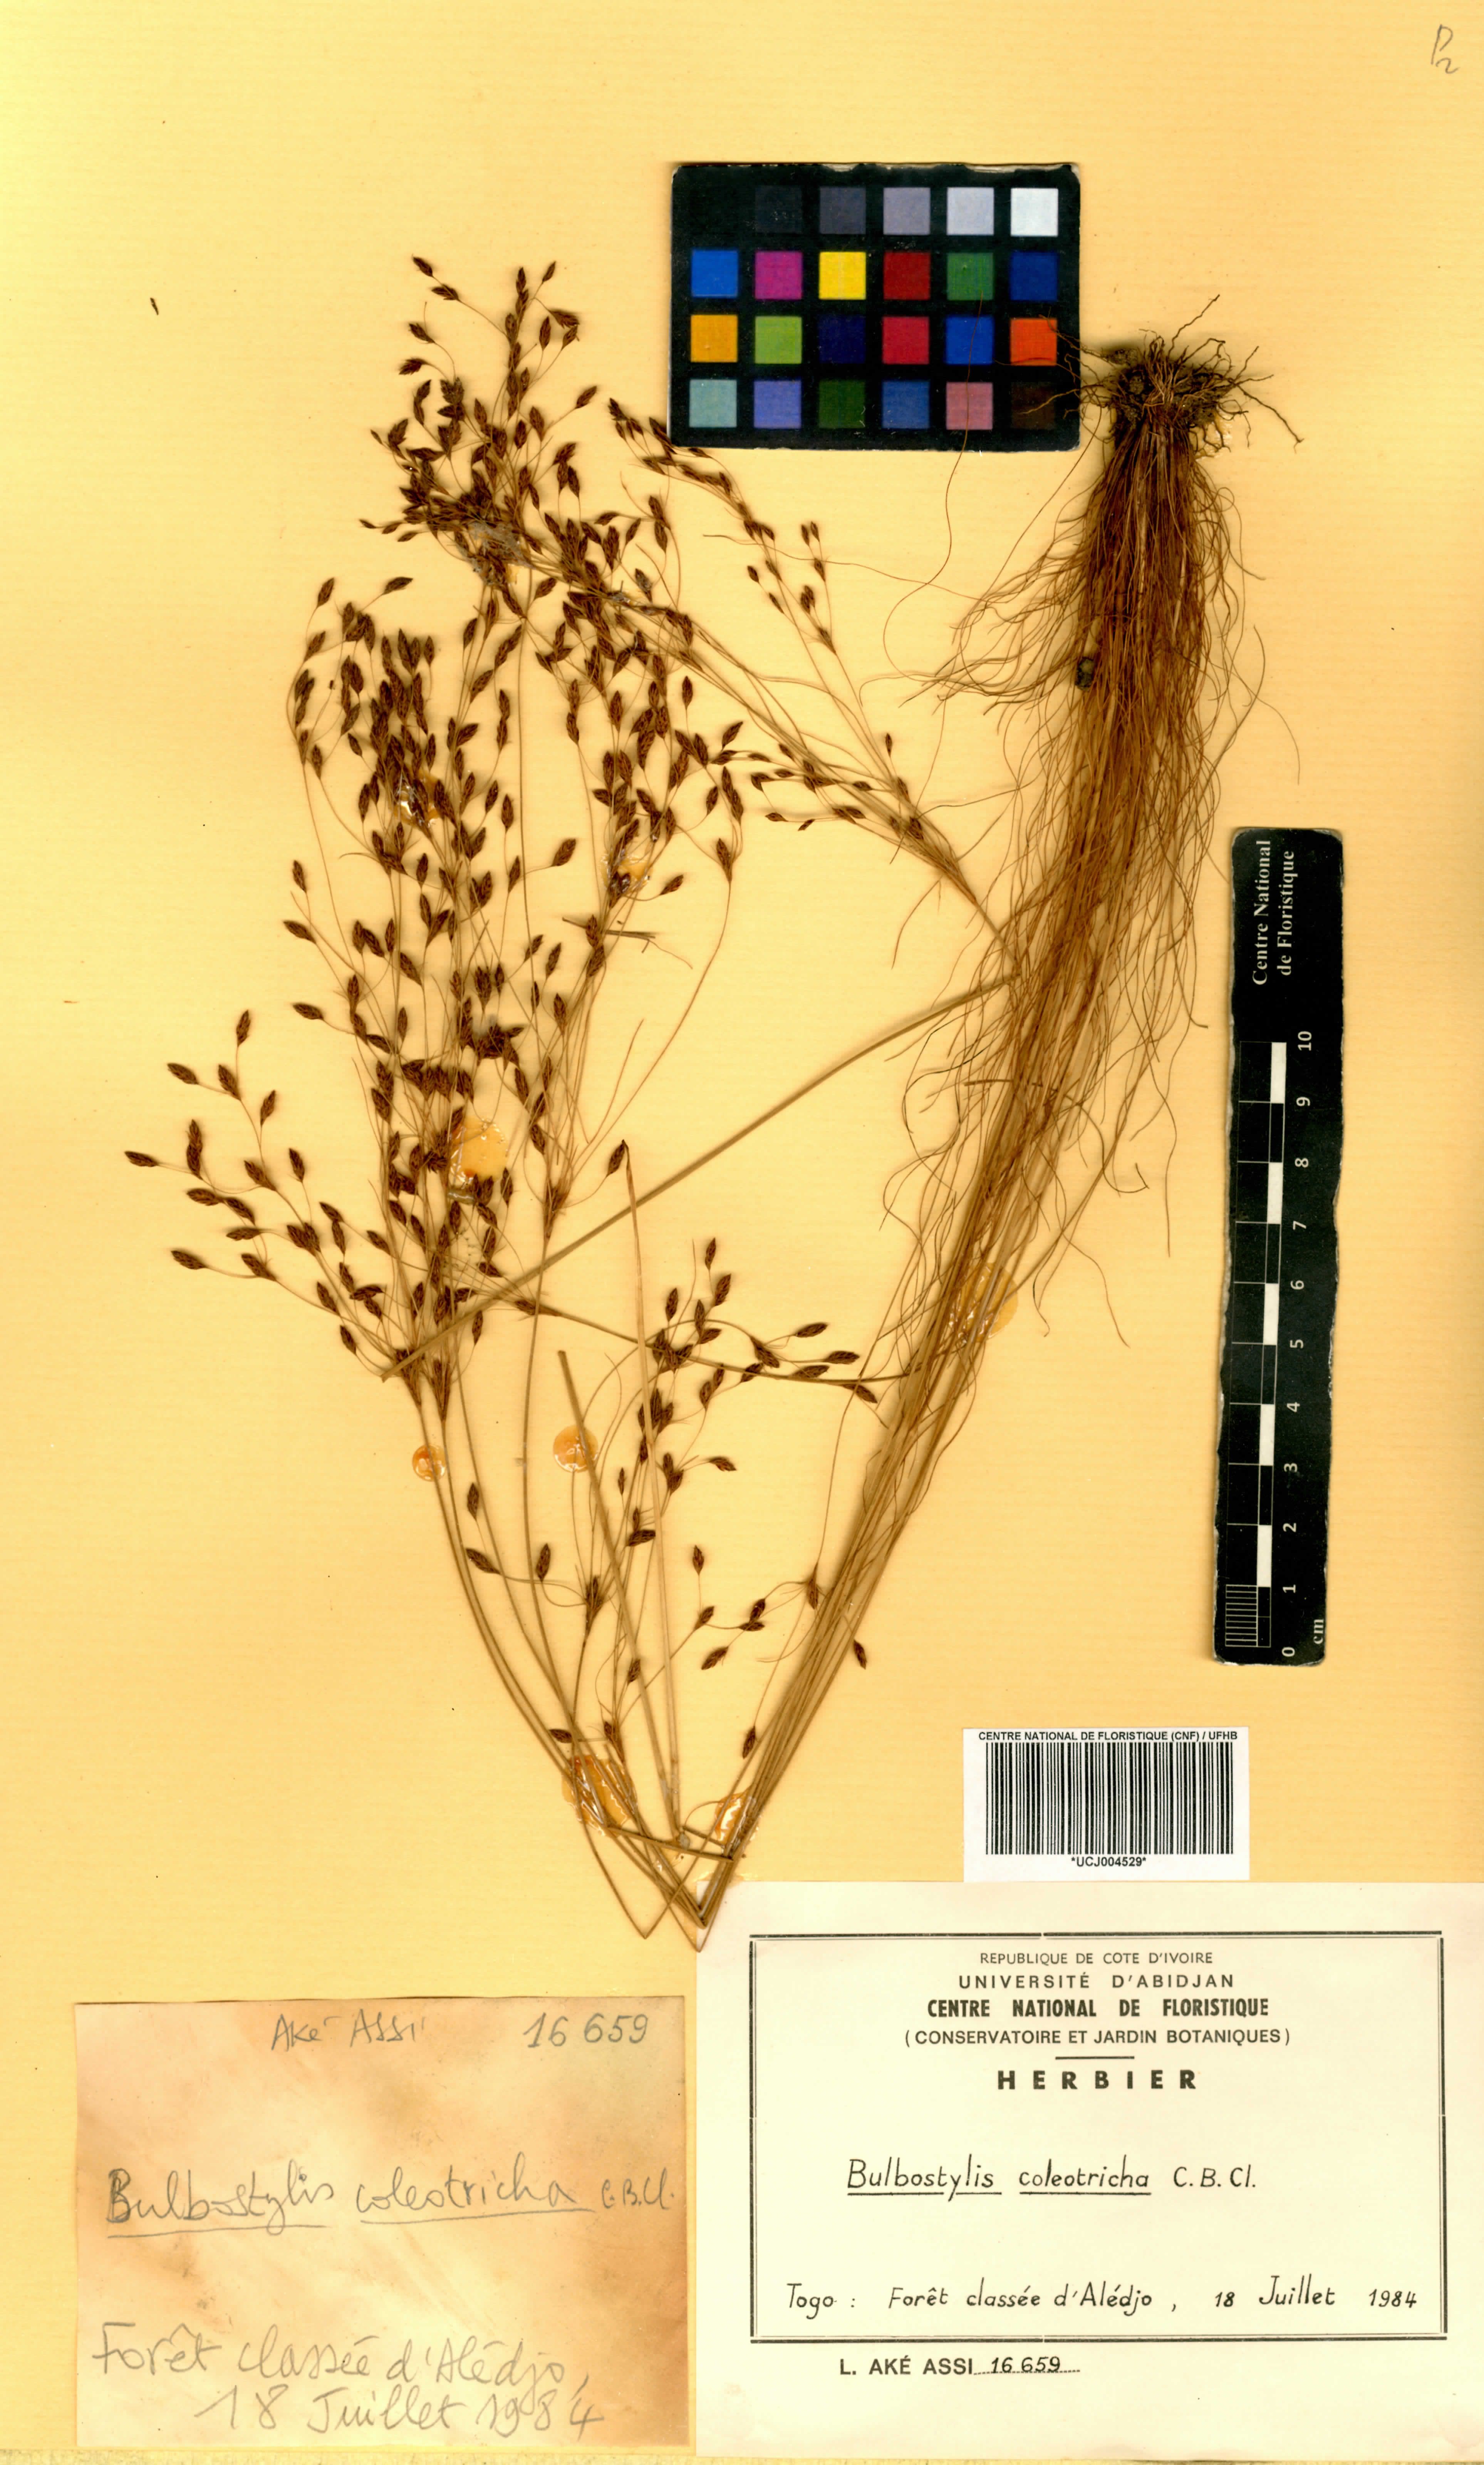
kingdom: Plantae
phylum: Tracheophyta
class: Liliopsida
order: Poales
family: Cyperaceae
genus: Bulbostylis
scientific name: Bulbostylis coleotricha
